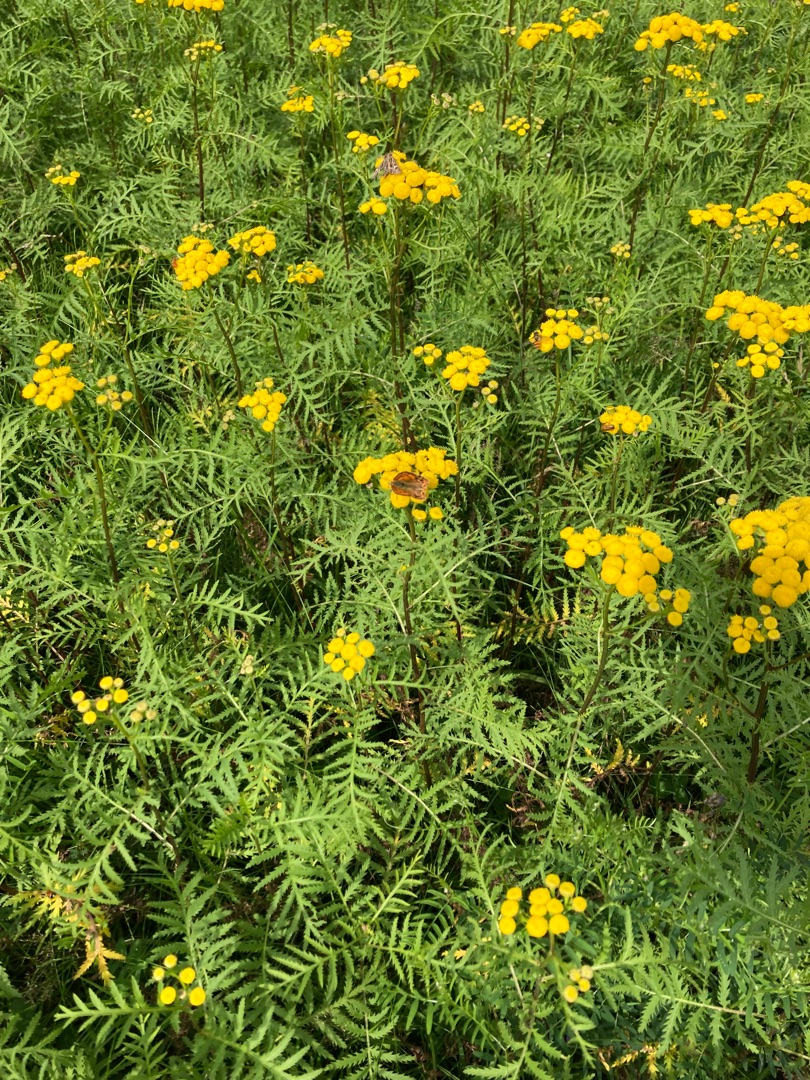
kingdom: Animalia
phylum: Arthropoda
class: Insecta
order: Lepidoptera
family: Lycaenidae
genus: Lycaena
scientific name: Lycaena virgaureae
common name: Dukatsommerfugl
